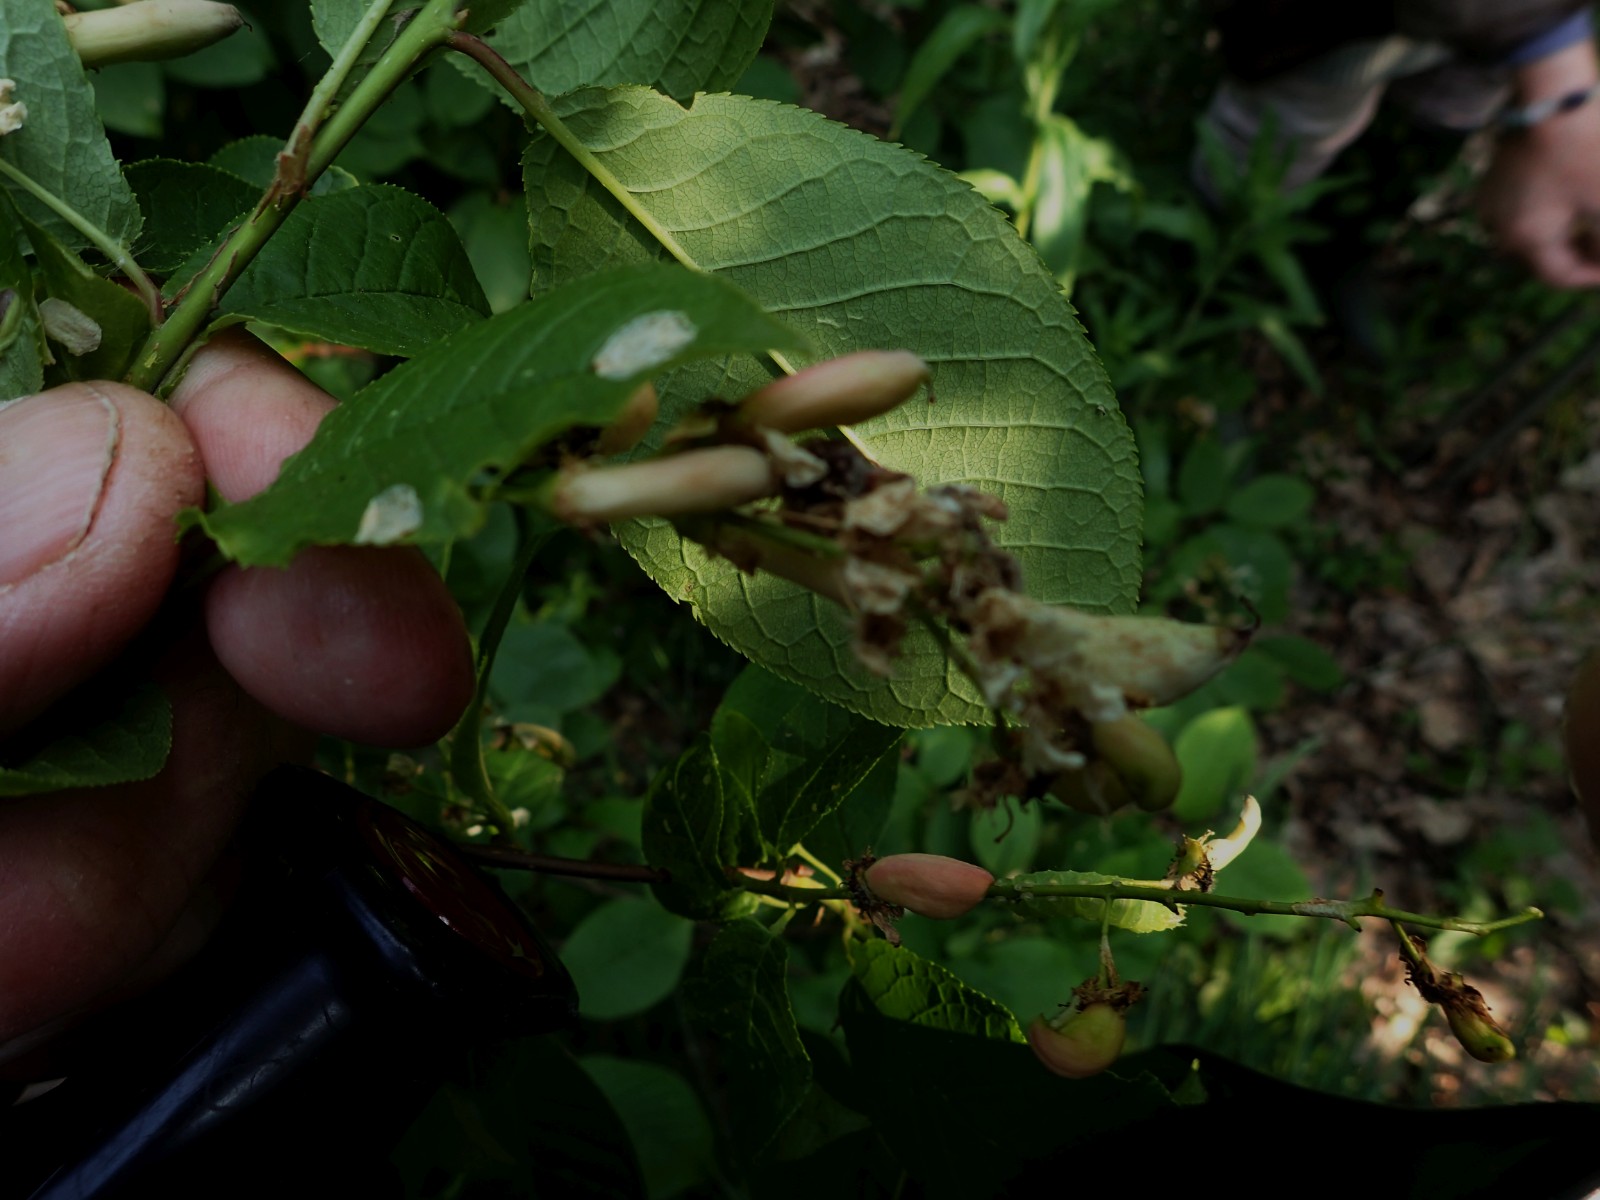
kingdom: Fungi
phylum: Ascomycota
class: Taphrinomycetes
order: Taphrinales
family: Taphrinaceae
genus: Taphrina
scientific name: Taphrina padi
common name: Bird cherry pocket
